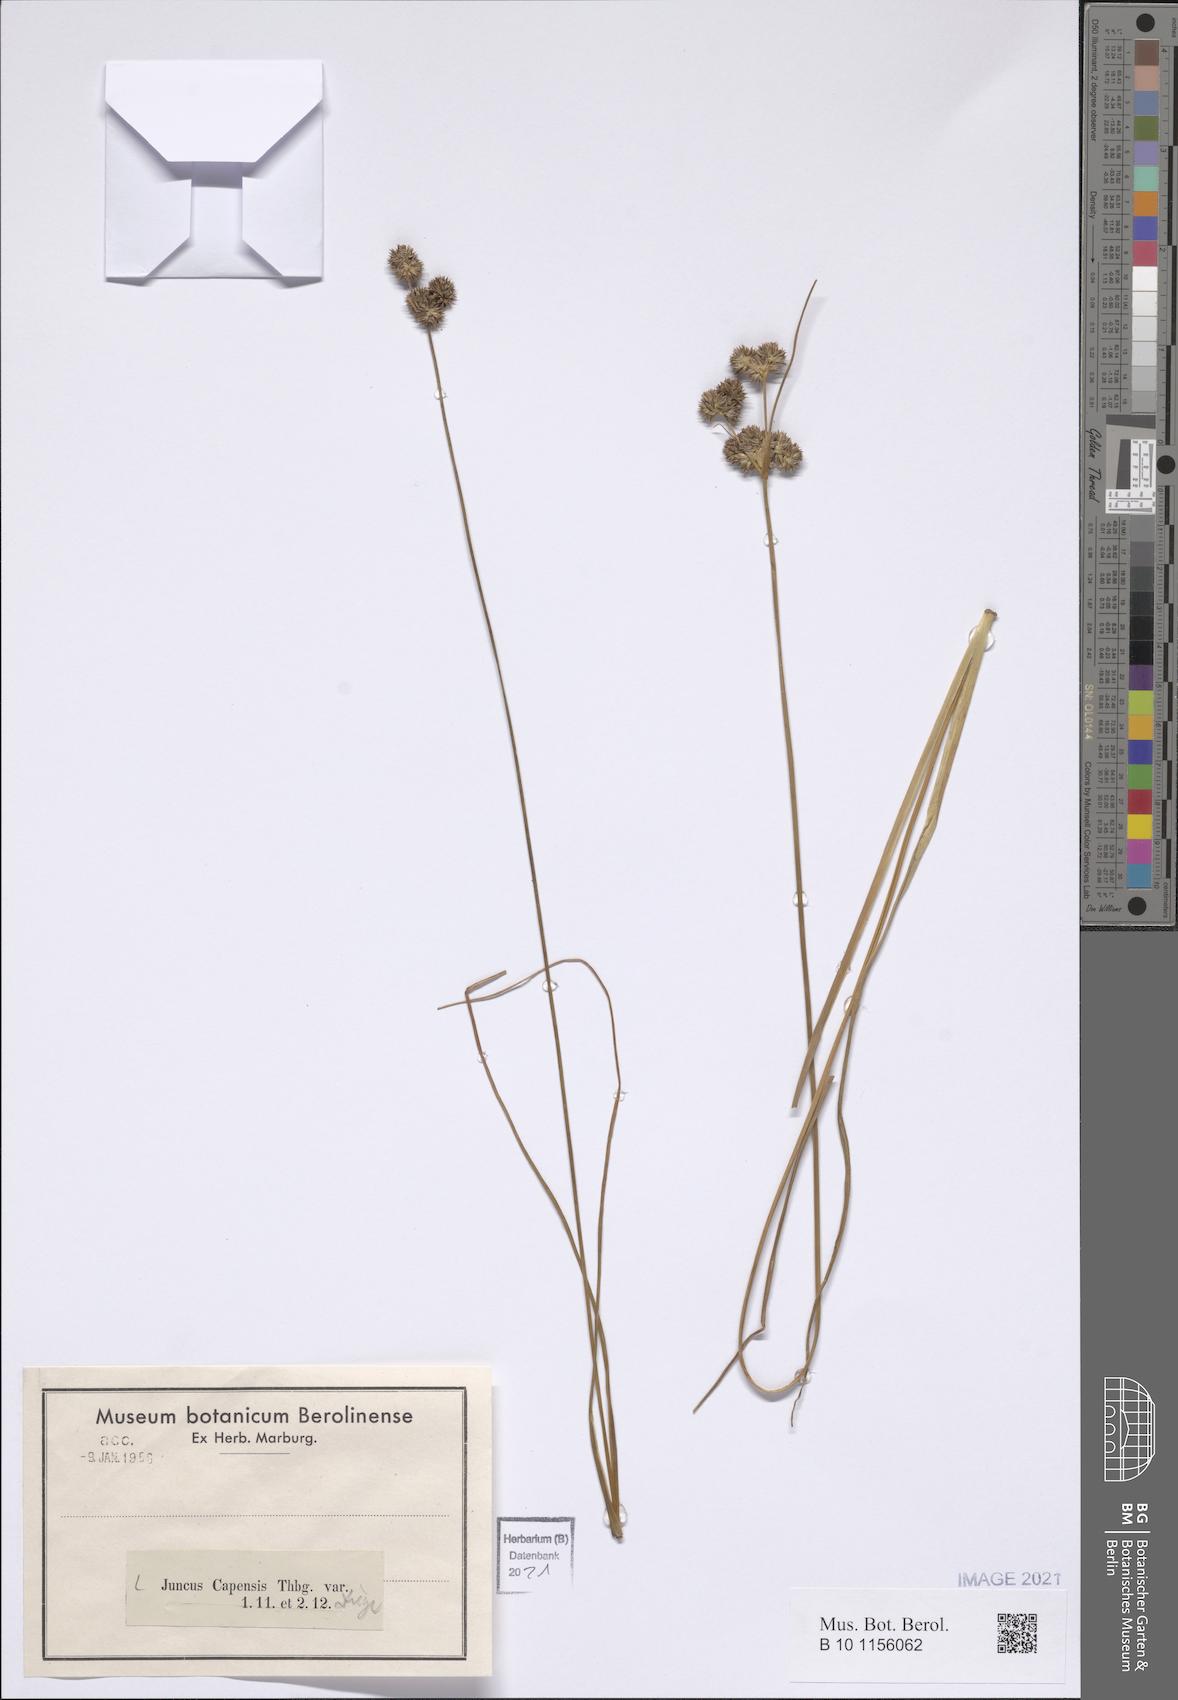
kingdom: Plantae
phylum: Tracheophyta
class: Liliopsida
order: Poales
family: Juncaceae
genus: Juncus
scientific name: Juncus capensis
